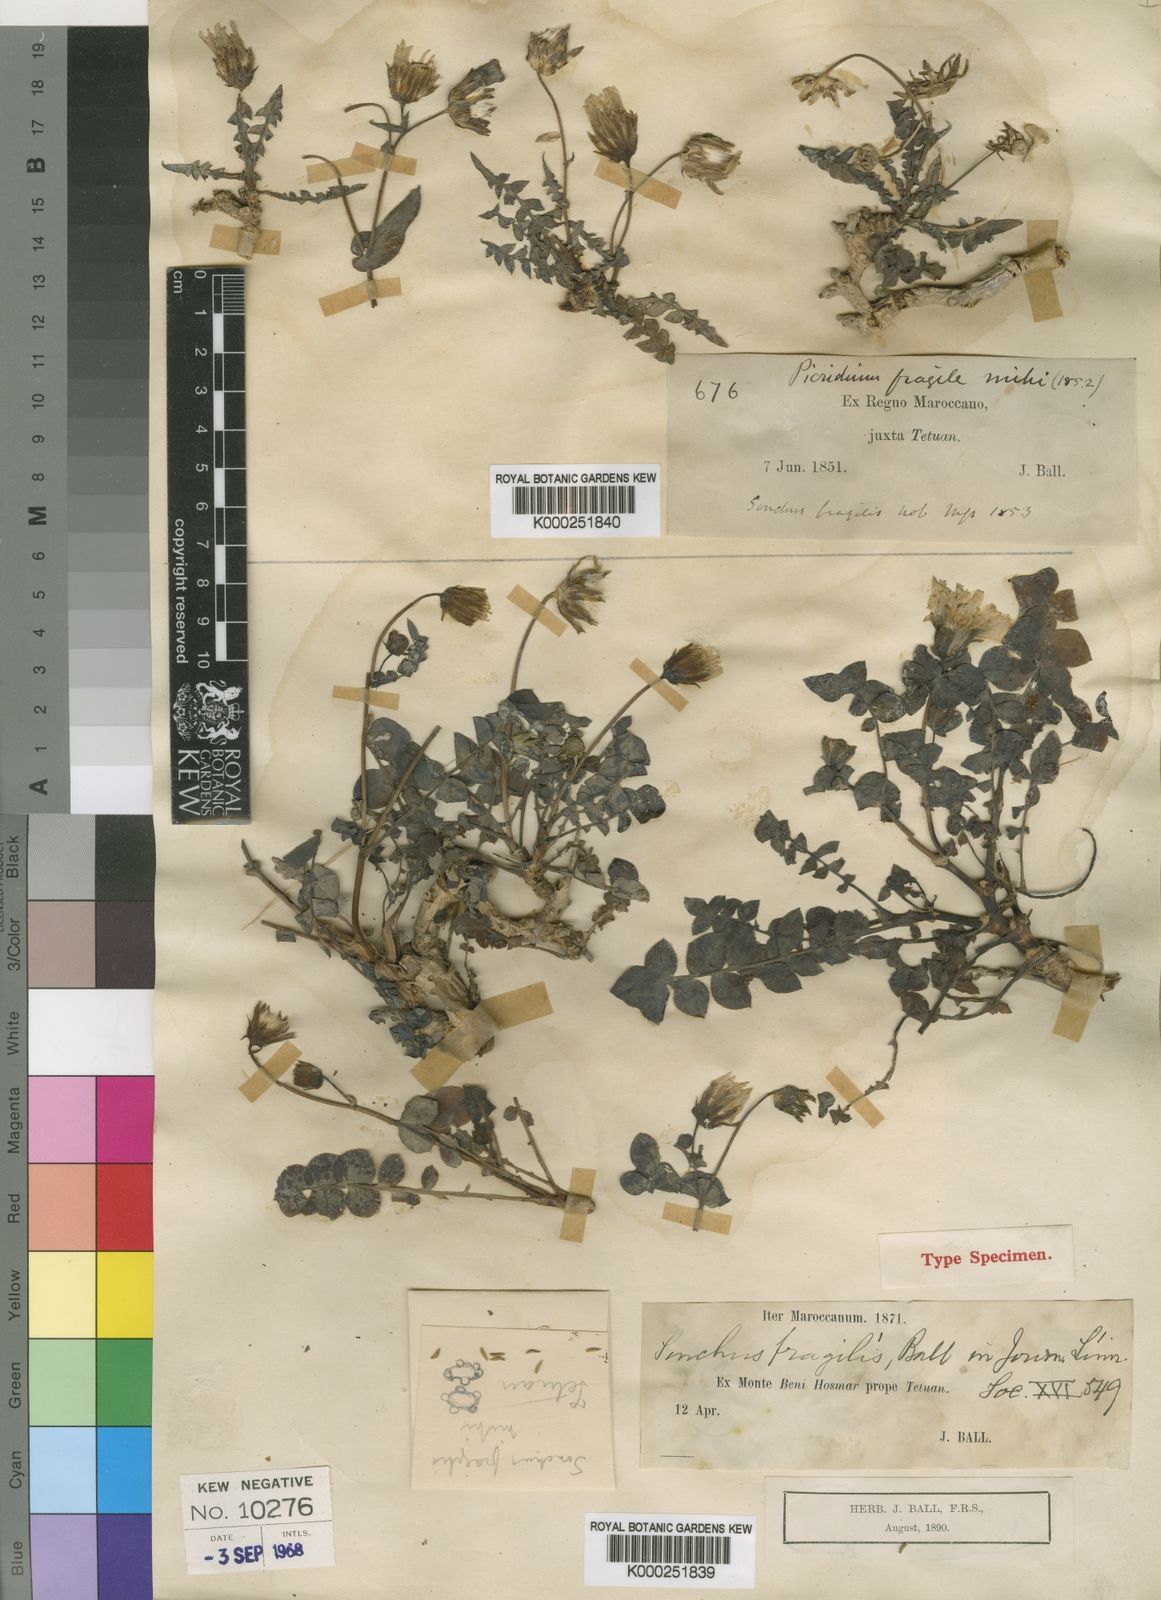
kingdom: Plantae
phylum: Tracheophyta
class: Magnoliopsida
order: Asterales
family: Asteraceae
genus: Sonchus
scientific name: Sonchus fragilis
